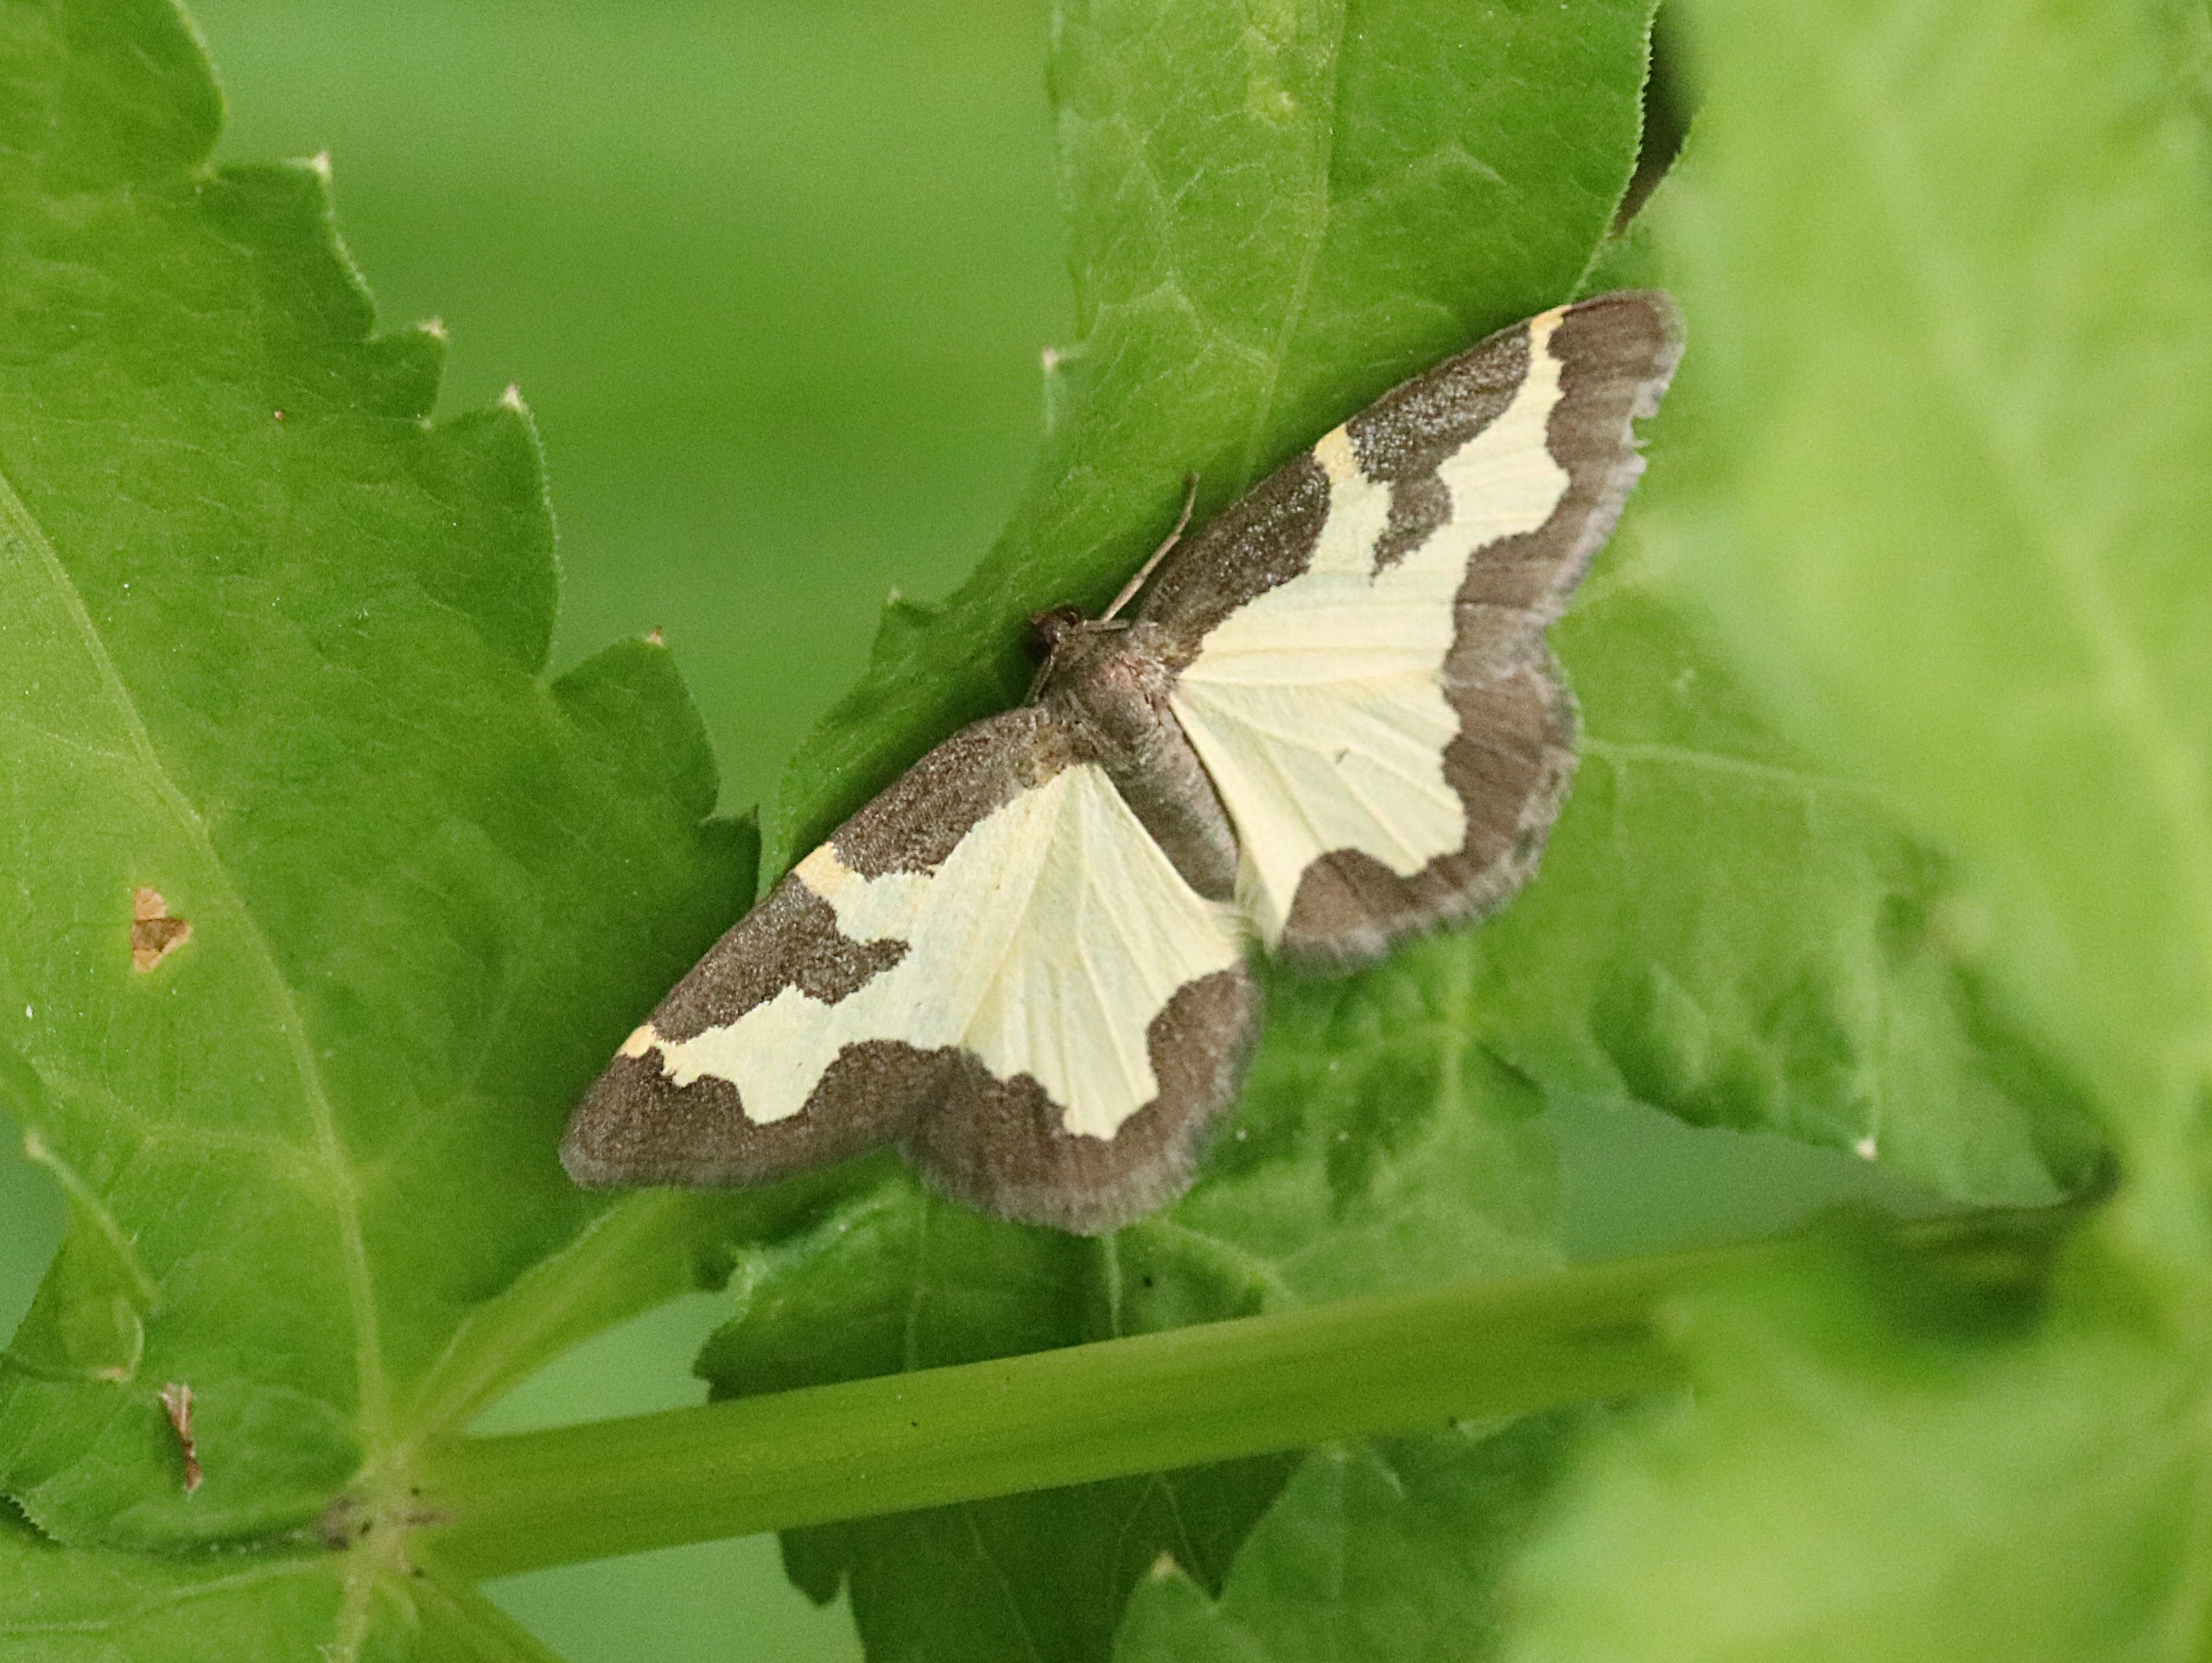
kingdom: Animalia
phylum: Arthropoda
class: Insecta
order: Lepidoptera
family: Geometridae
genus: Lomaspilis
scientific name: Lomaspilis marginata
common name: Sortrandet måler
